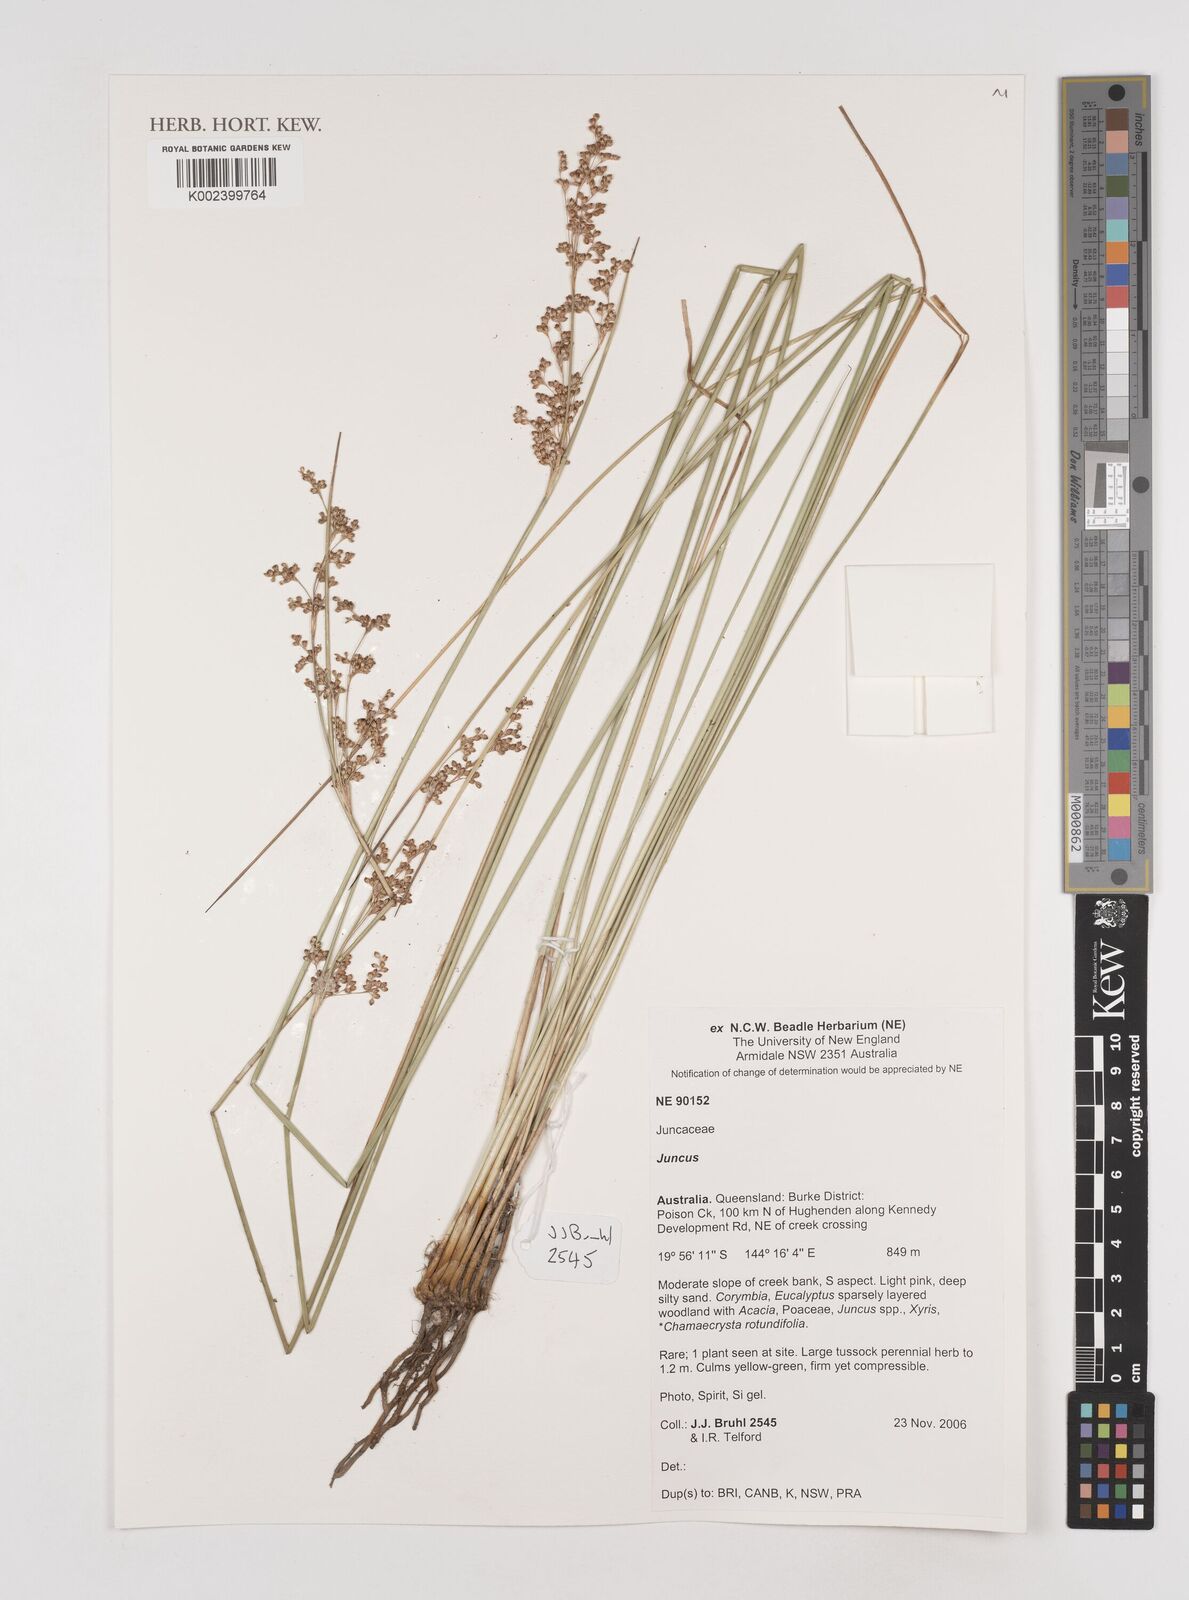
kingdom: Plantae
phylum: Tracheophyta
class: Liliopsida
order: Poales
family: Juncaceae
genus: Juncus
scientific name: Juncus
